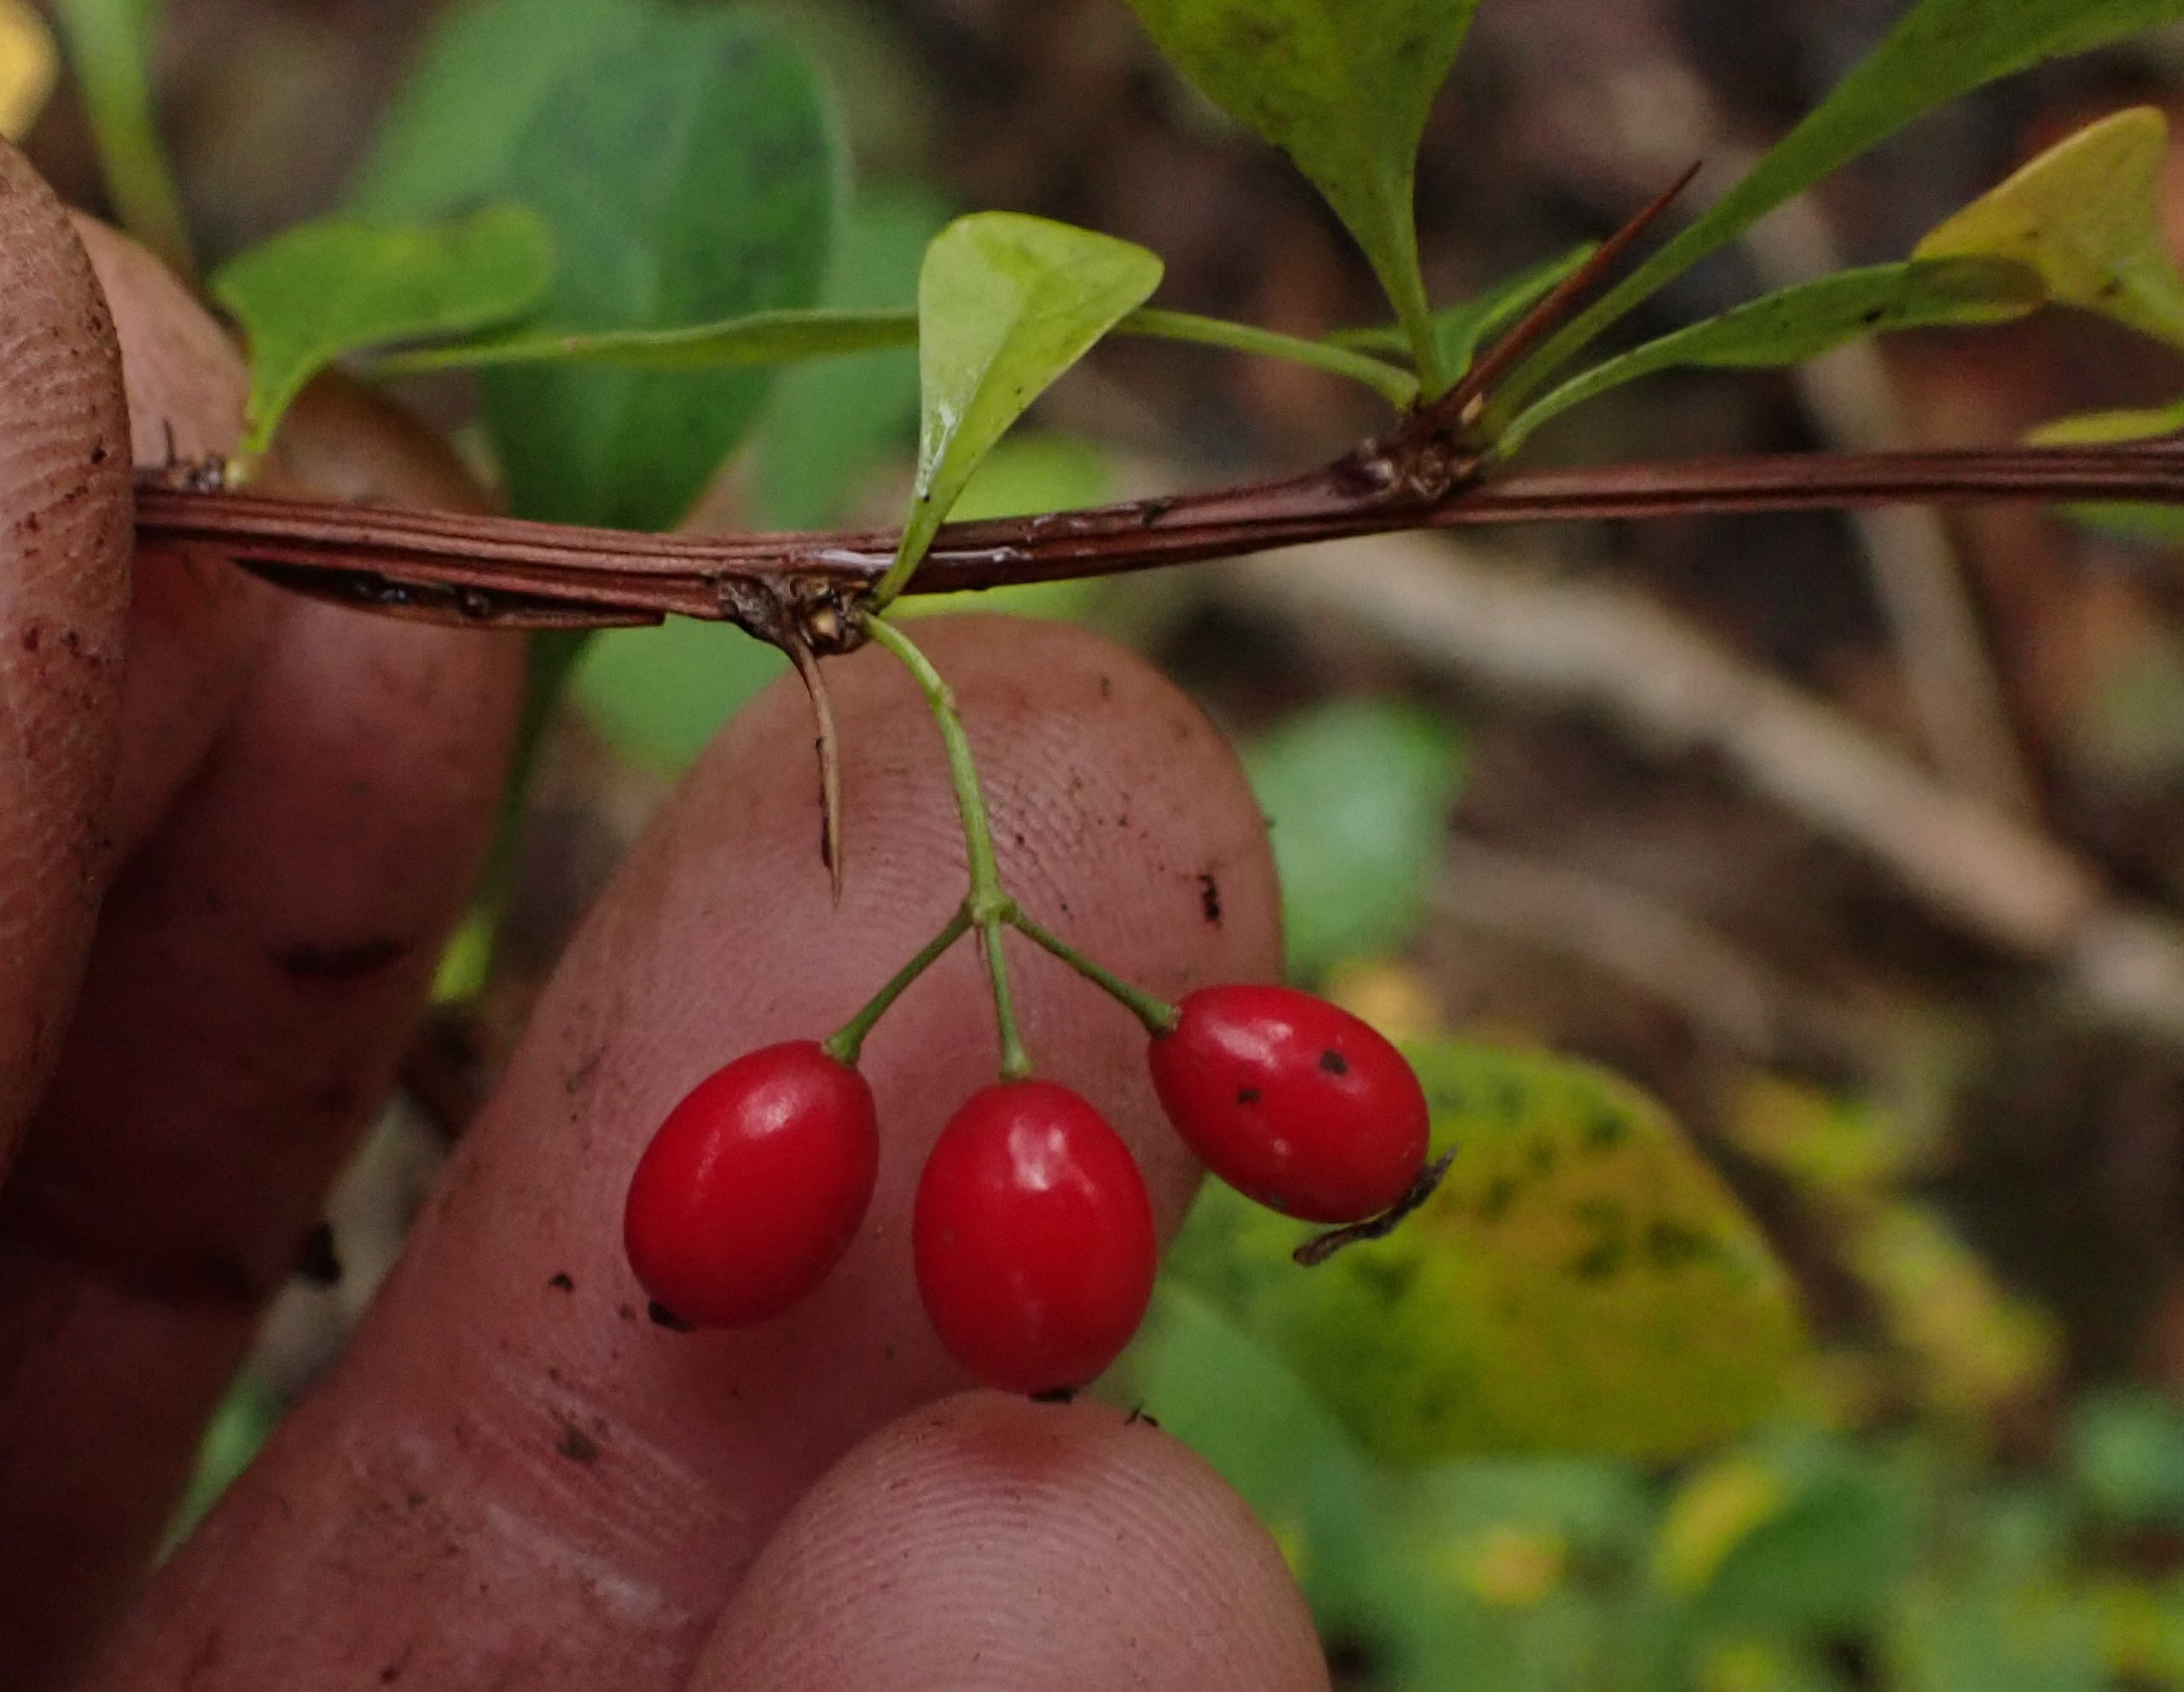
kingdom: Plantae
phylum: Tracheophyta
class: Magnoliopsida
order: Ranunculales
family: Berberidaceae
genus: Berberis
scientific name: Berberis thunbergii
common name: Hæk-berberis
